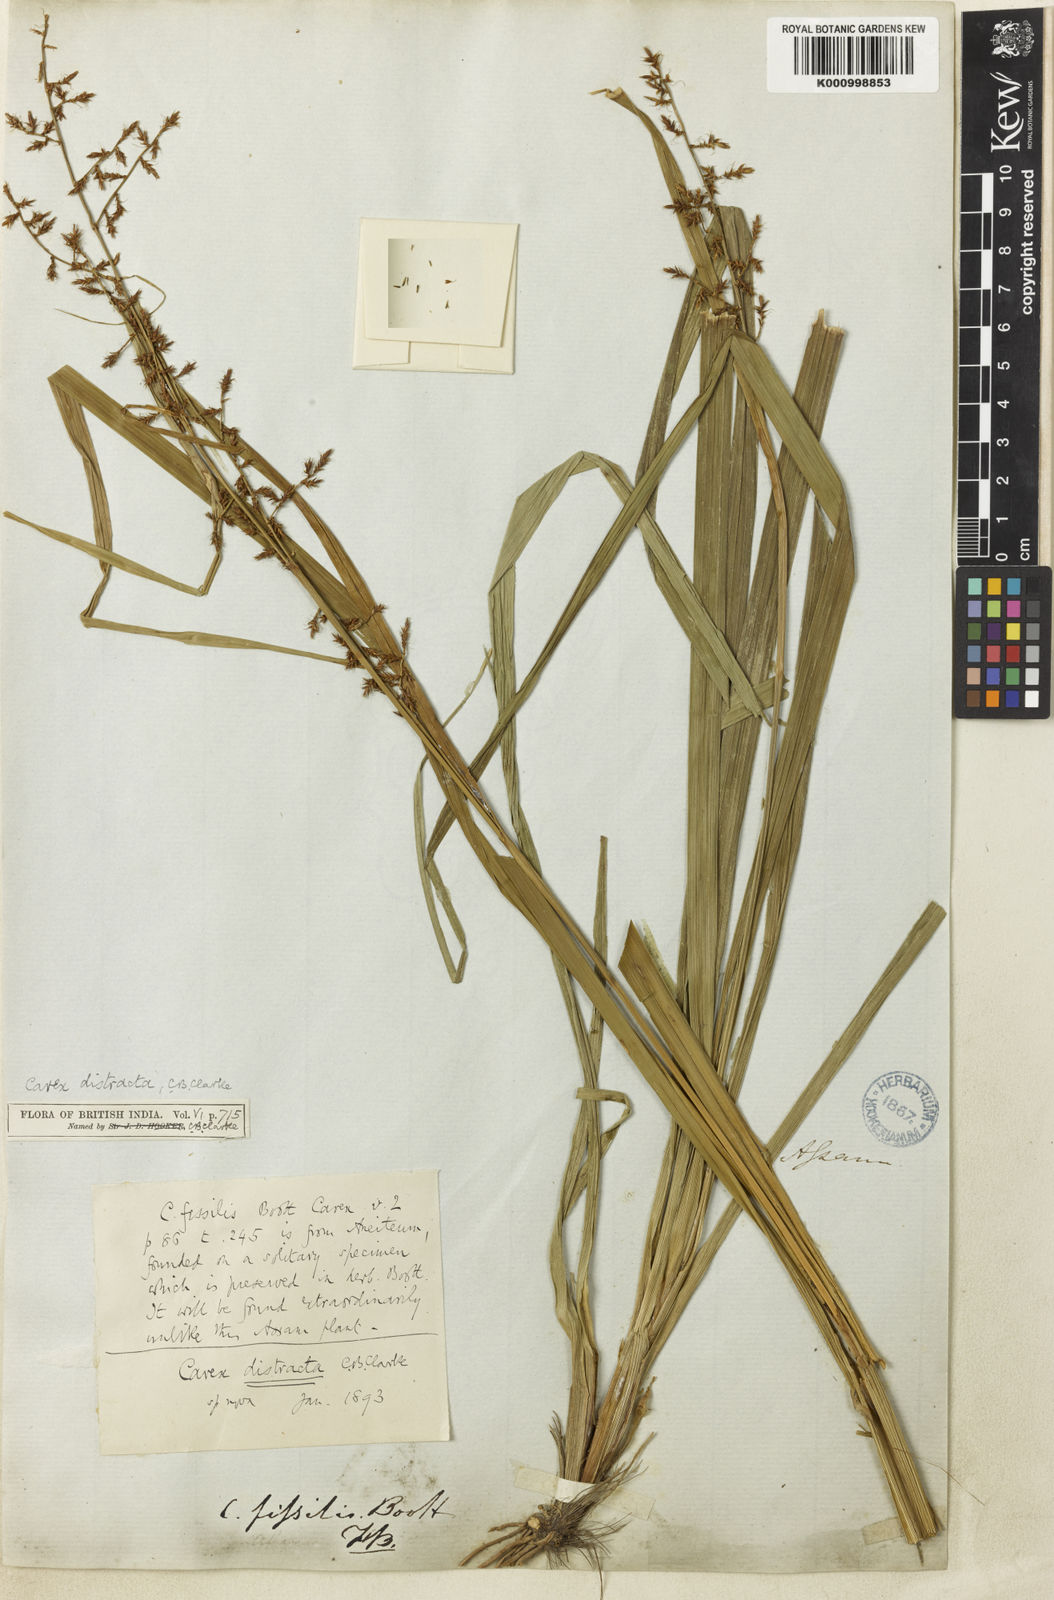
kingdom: Plantae
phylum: Tracheophyta
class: Liliopsida
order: Poales
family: Cyperaceae
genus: Carex
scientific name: Carex distracta
